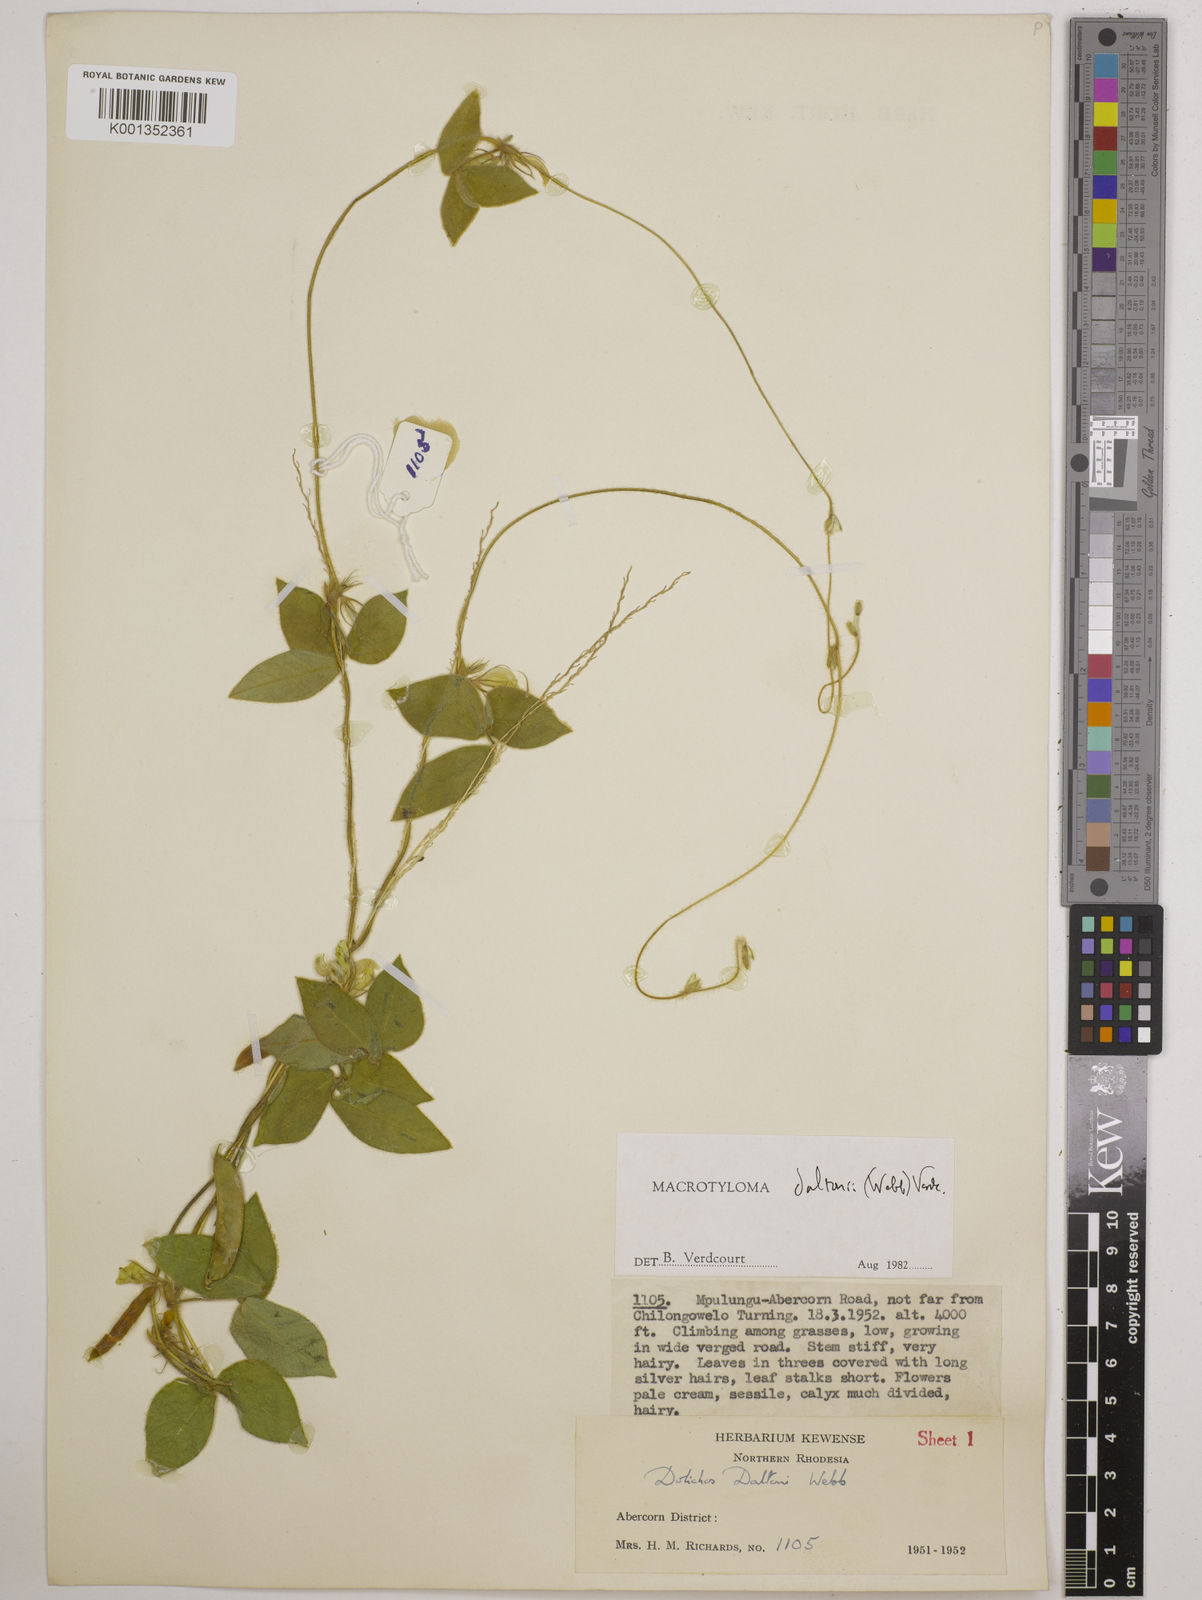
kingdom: Plantae
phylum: Tracheophyta
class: Magnoliopsida
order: Fabales
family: Fabaceae
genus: Macrotyloma
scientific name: Macrotyloma daltonii
